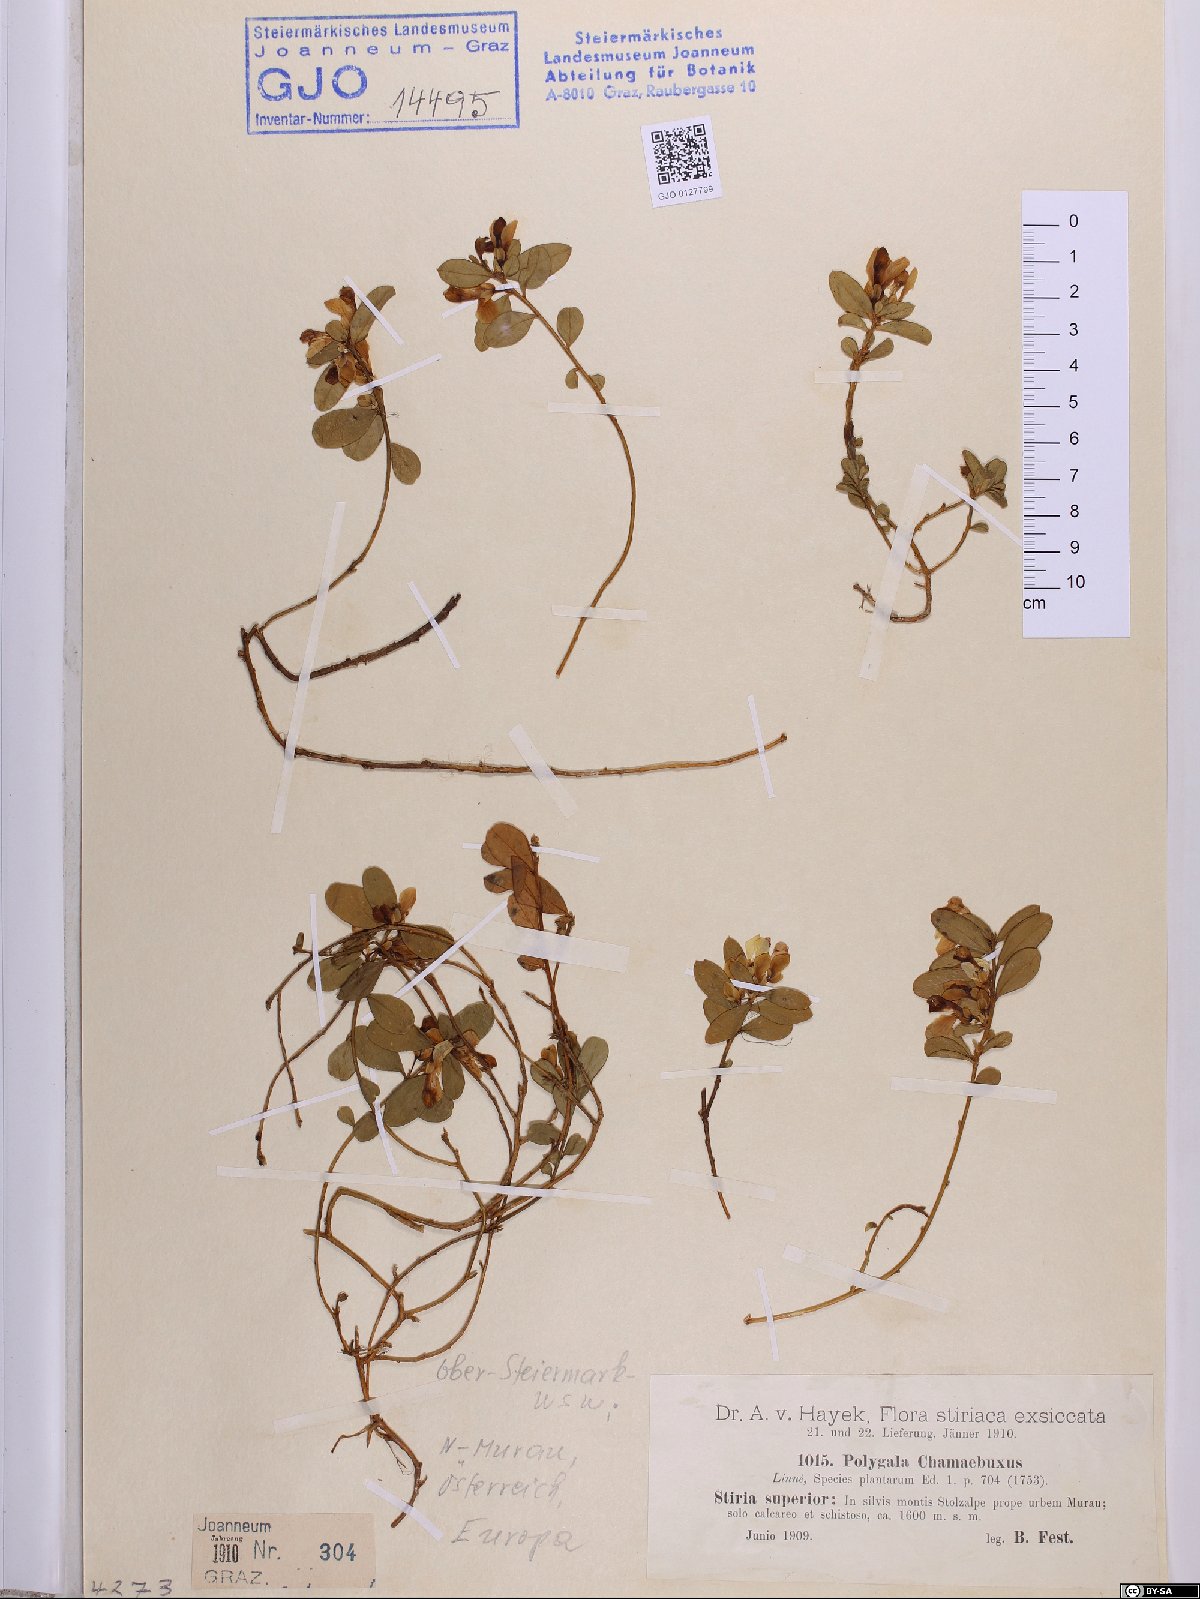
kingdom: Plantae
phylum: Tracheophyta
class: Magnoliopsida
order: Fabales
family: Polygalaceae
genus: Polygaloides
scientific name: Polygaloides chamaebuxus
